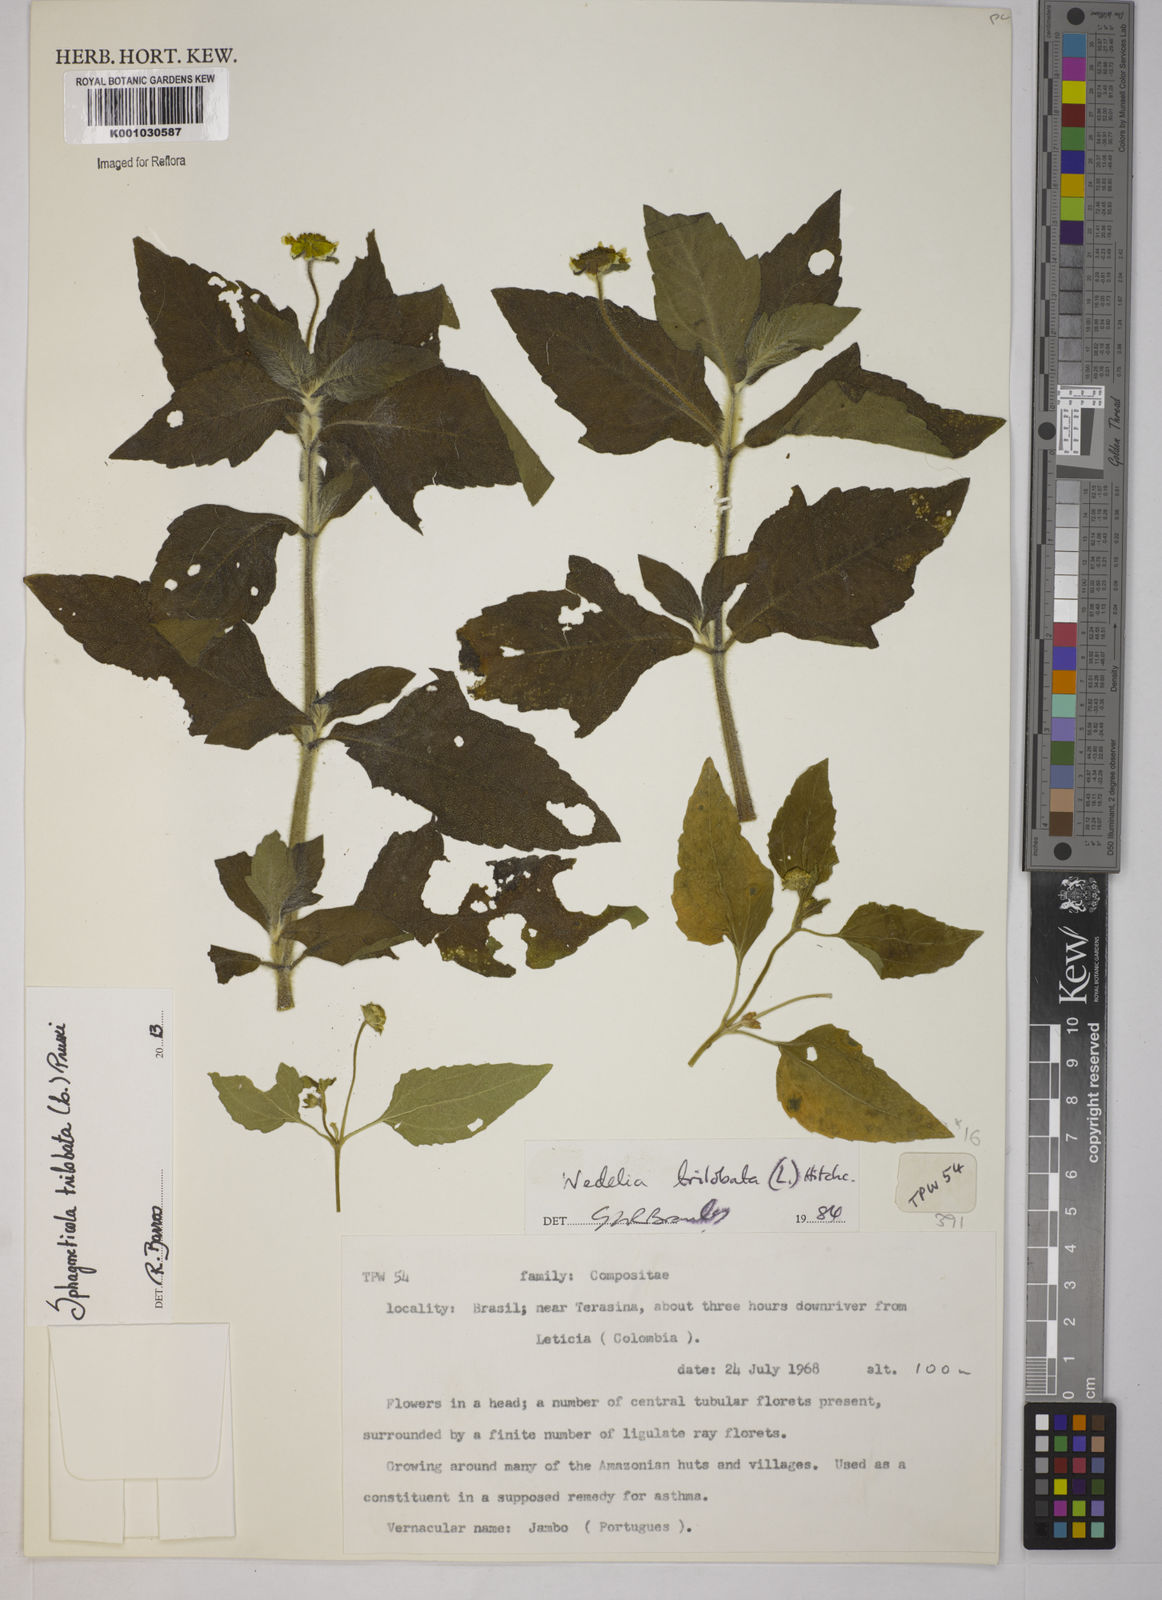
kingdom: Plantae
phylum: Tracheophyta
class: Magnoliopsida
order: Asterales
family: Asteraceae
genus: Sphagneticola
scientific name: Sphagneticola trilobata
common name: Bay biscayne creeping-oxeye
